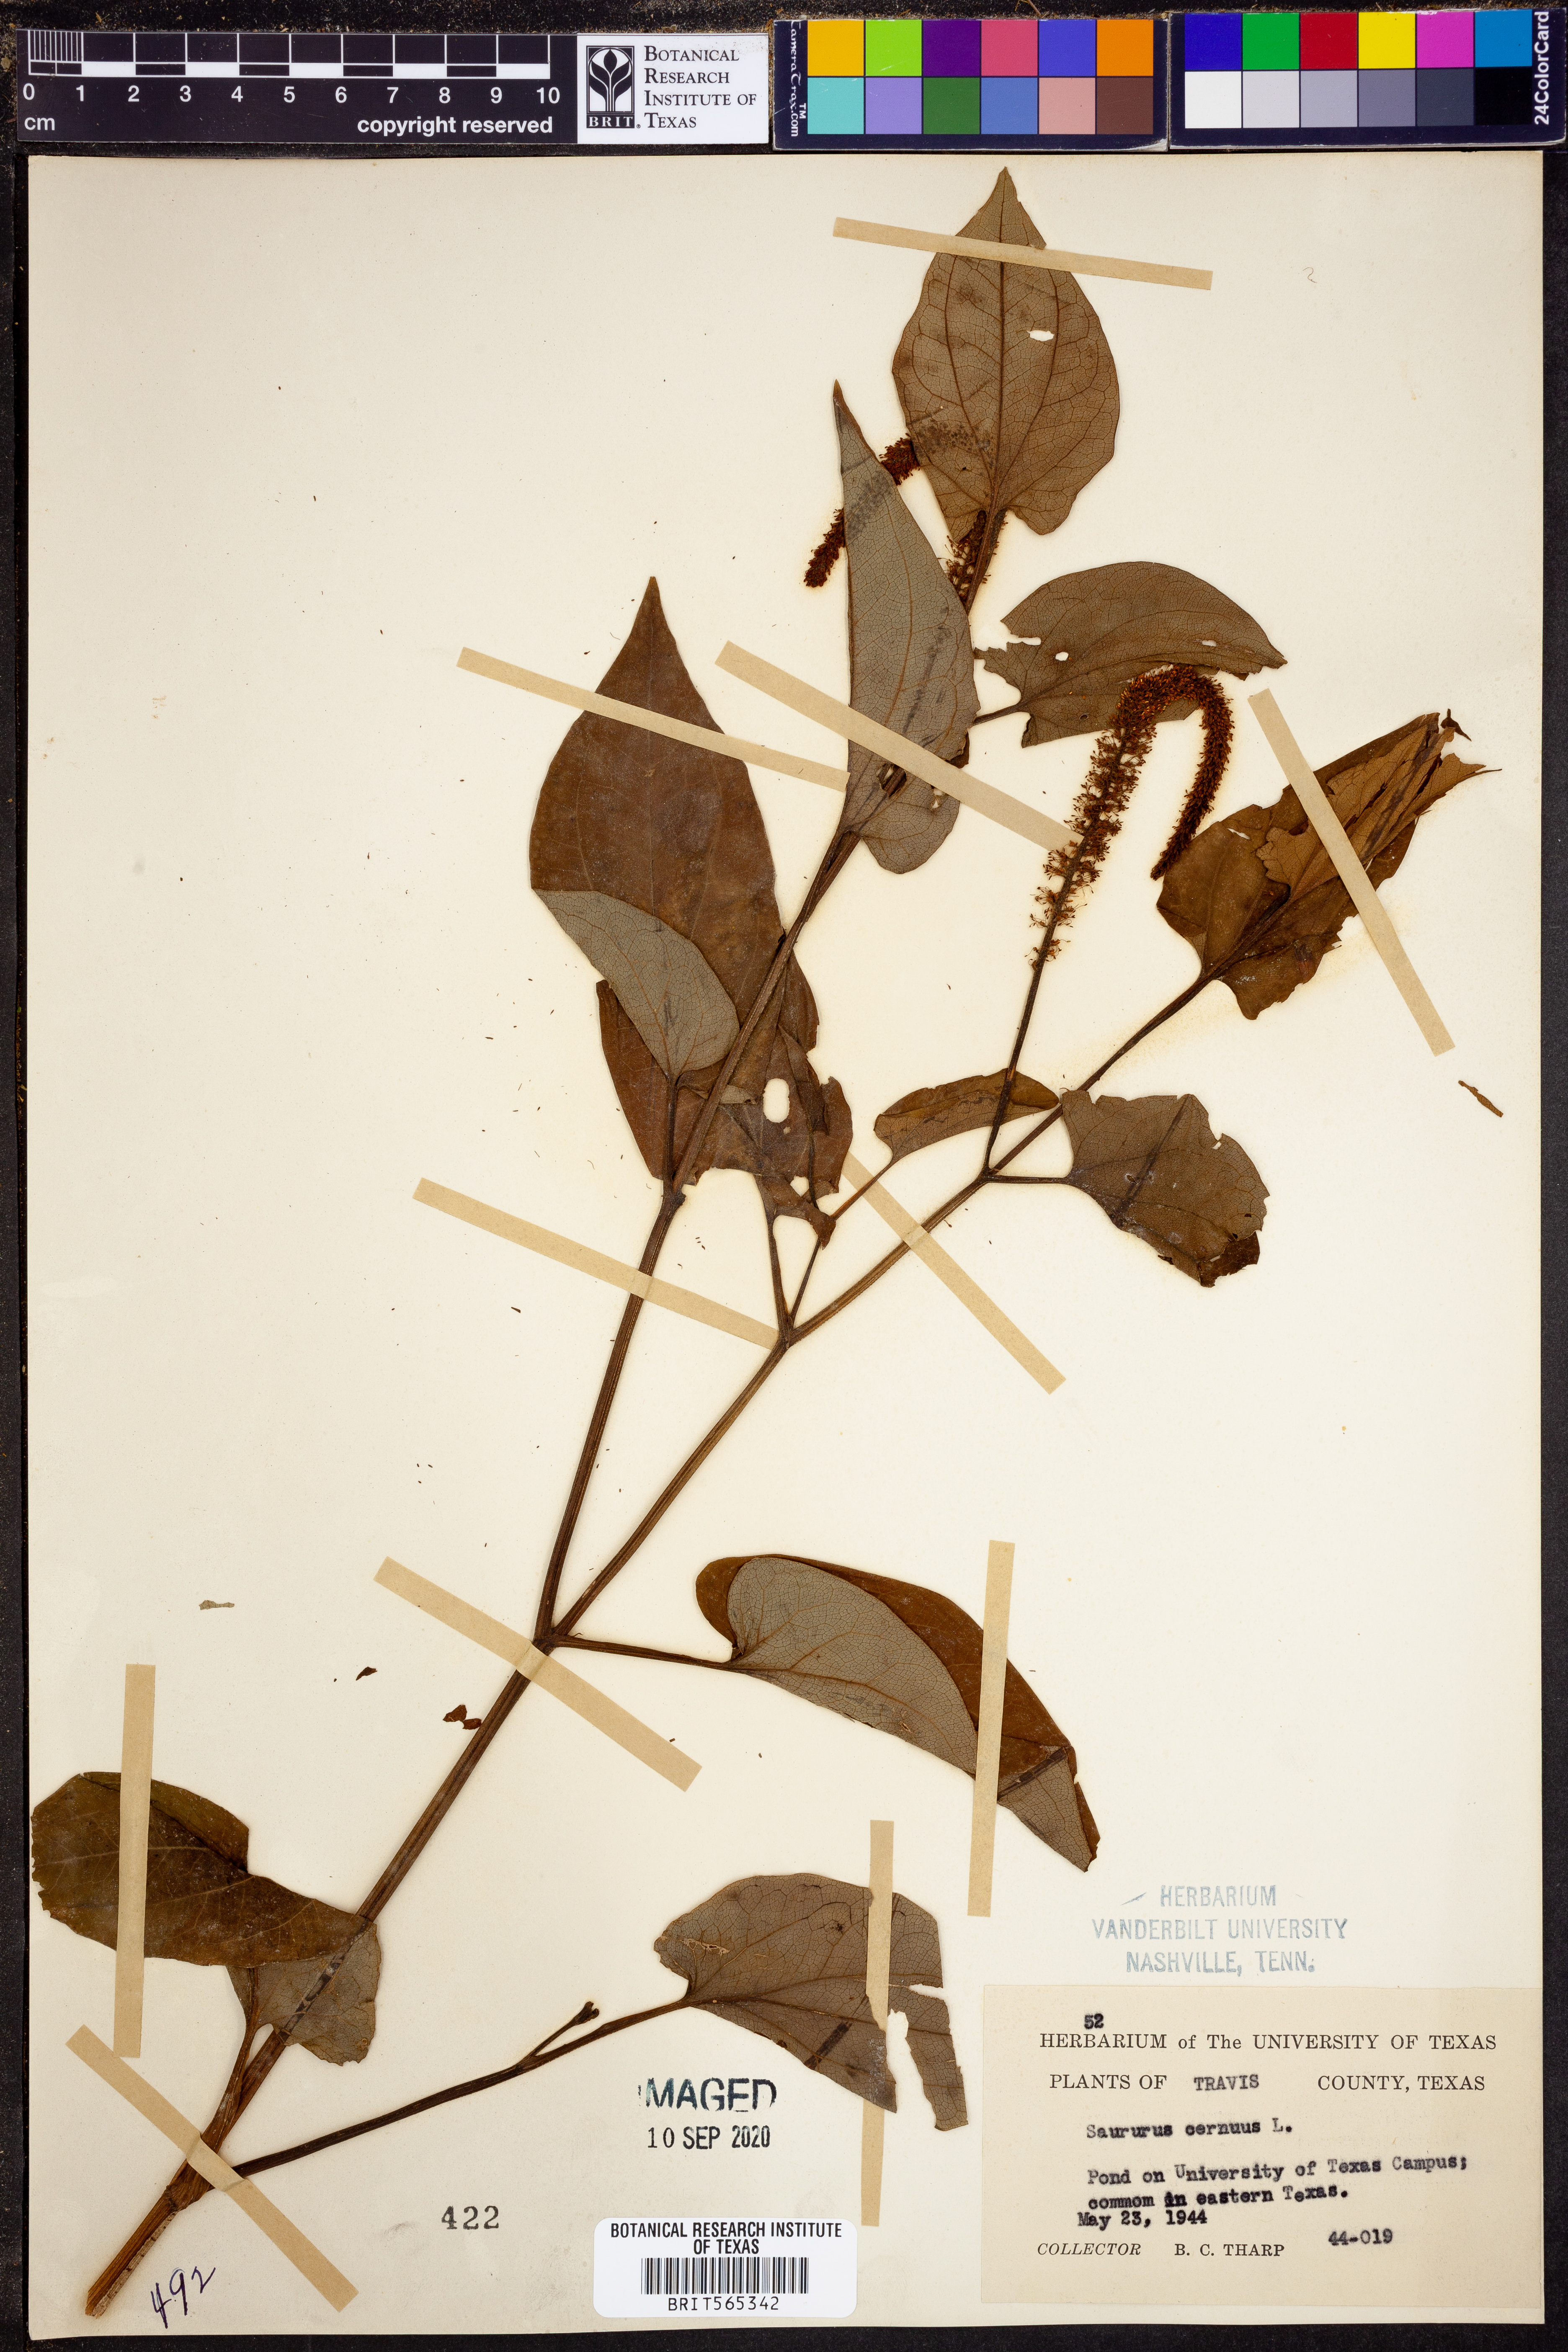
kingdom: Plantae
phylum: Tracheophyta
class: Magnoliopsida
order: Piperales
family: Saururaceae
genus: Saururus
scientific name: Saururus cernuus
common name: Lizard's-tail
